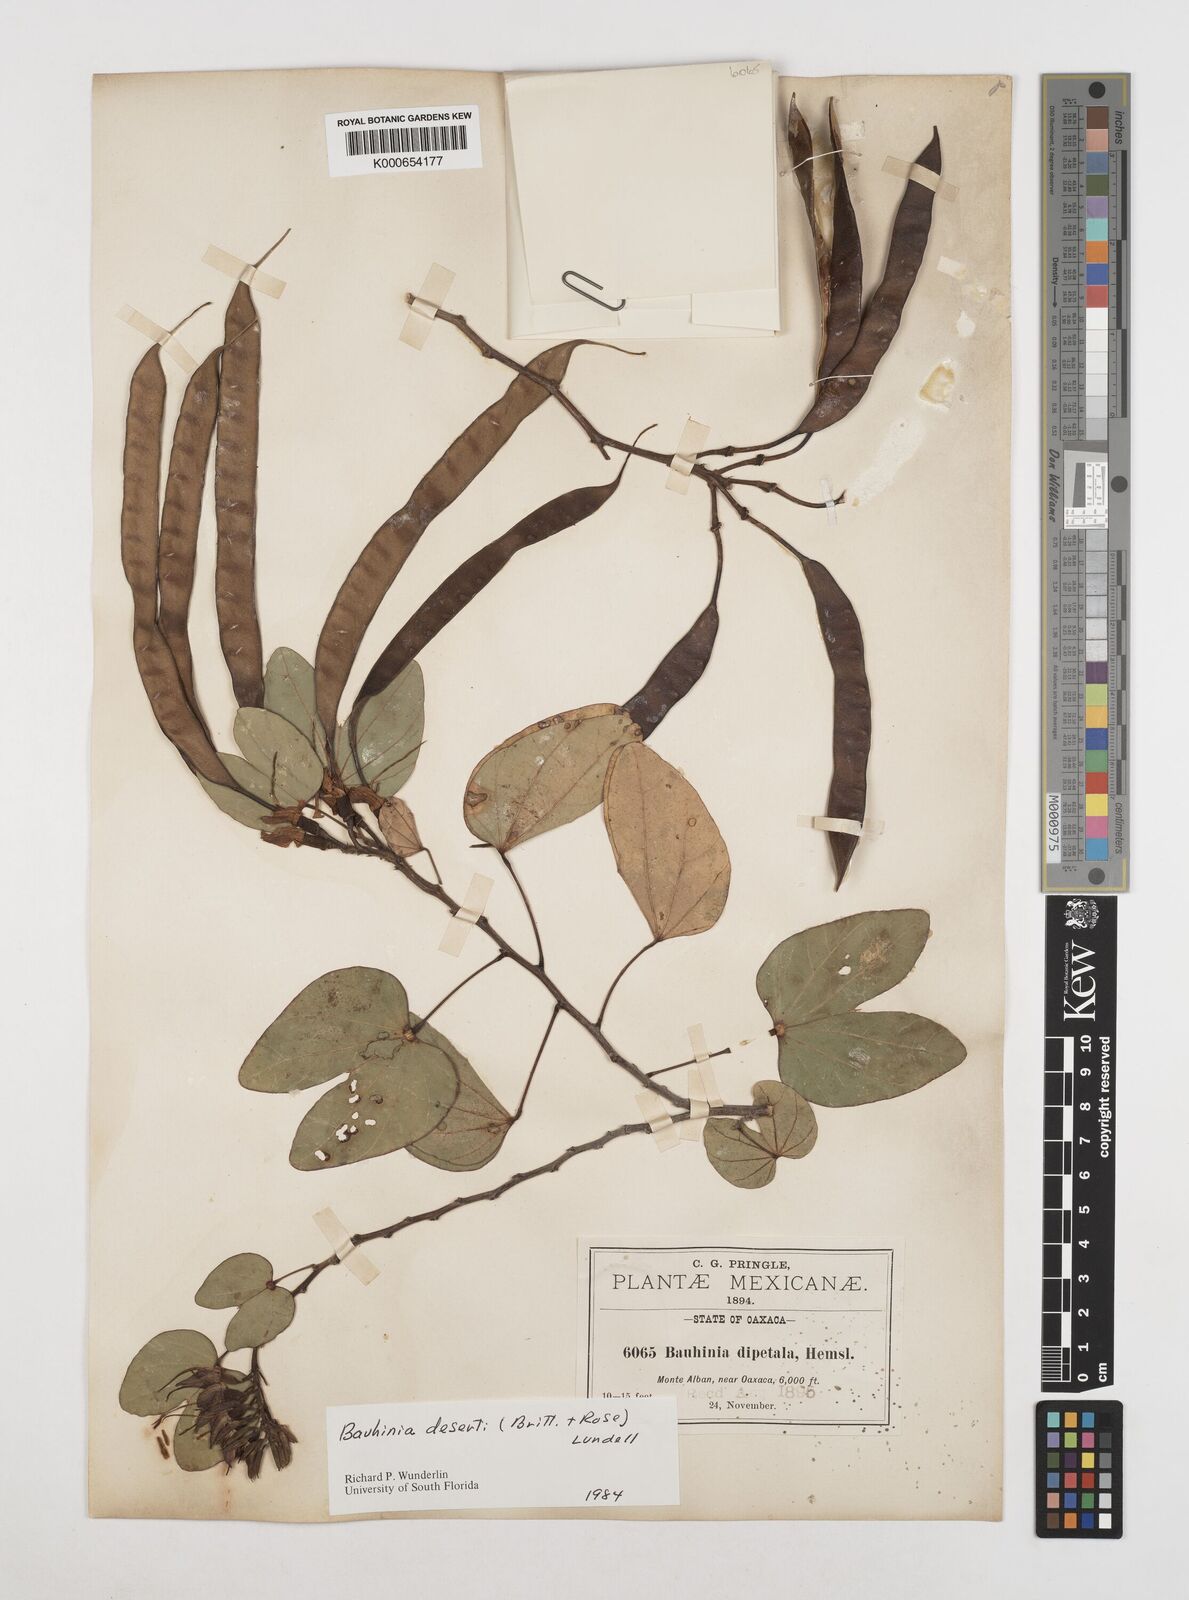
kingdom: Plantae
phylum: Tracheophyta
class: Magnoliopsida
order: Fabales
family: Fabaceae
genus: Bauhinia
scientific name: Bauhinia deserti
